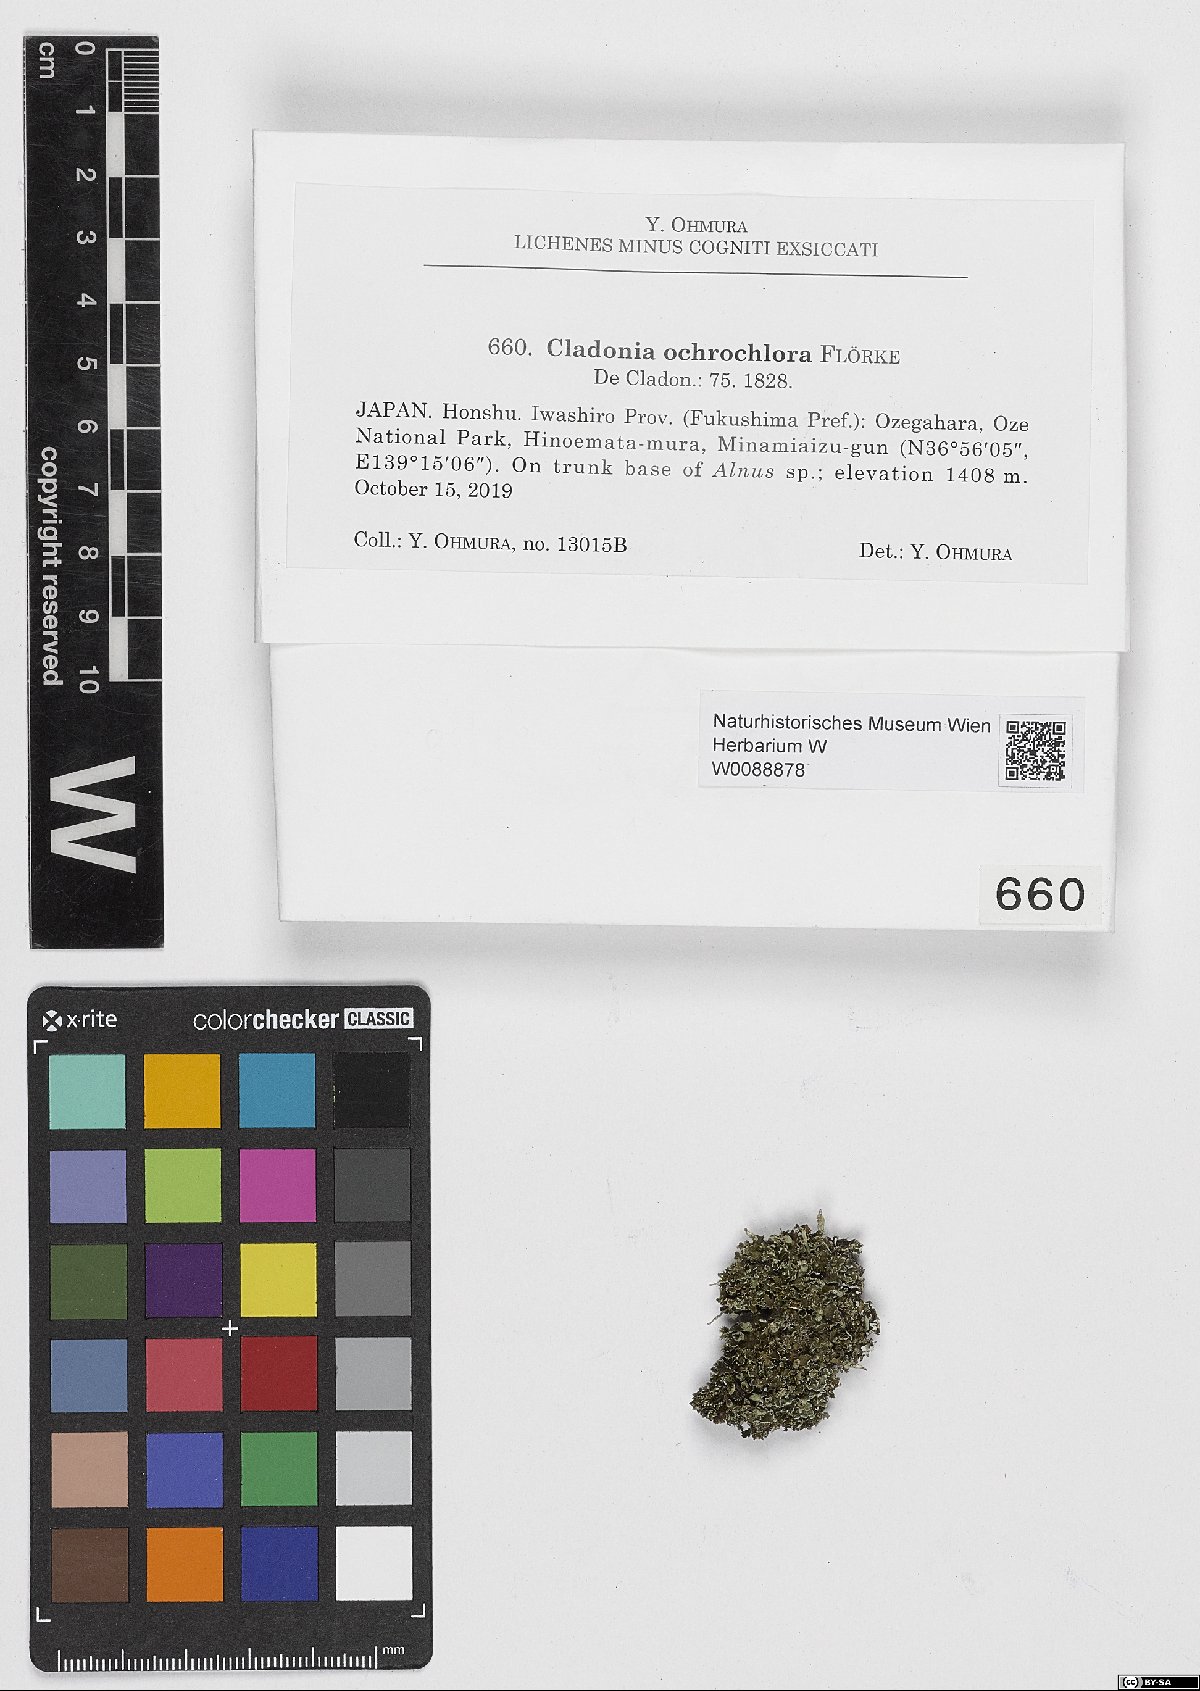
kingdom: Fungi
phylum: Ascomycota
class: Lecanoromycetes
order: Lecanorales
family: Cladoniaceae
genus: Cladonia
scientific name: Cladonia ochrochlora
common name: Smooth-footed powderhorn
